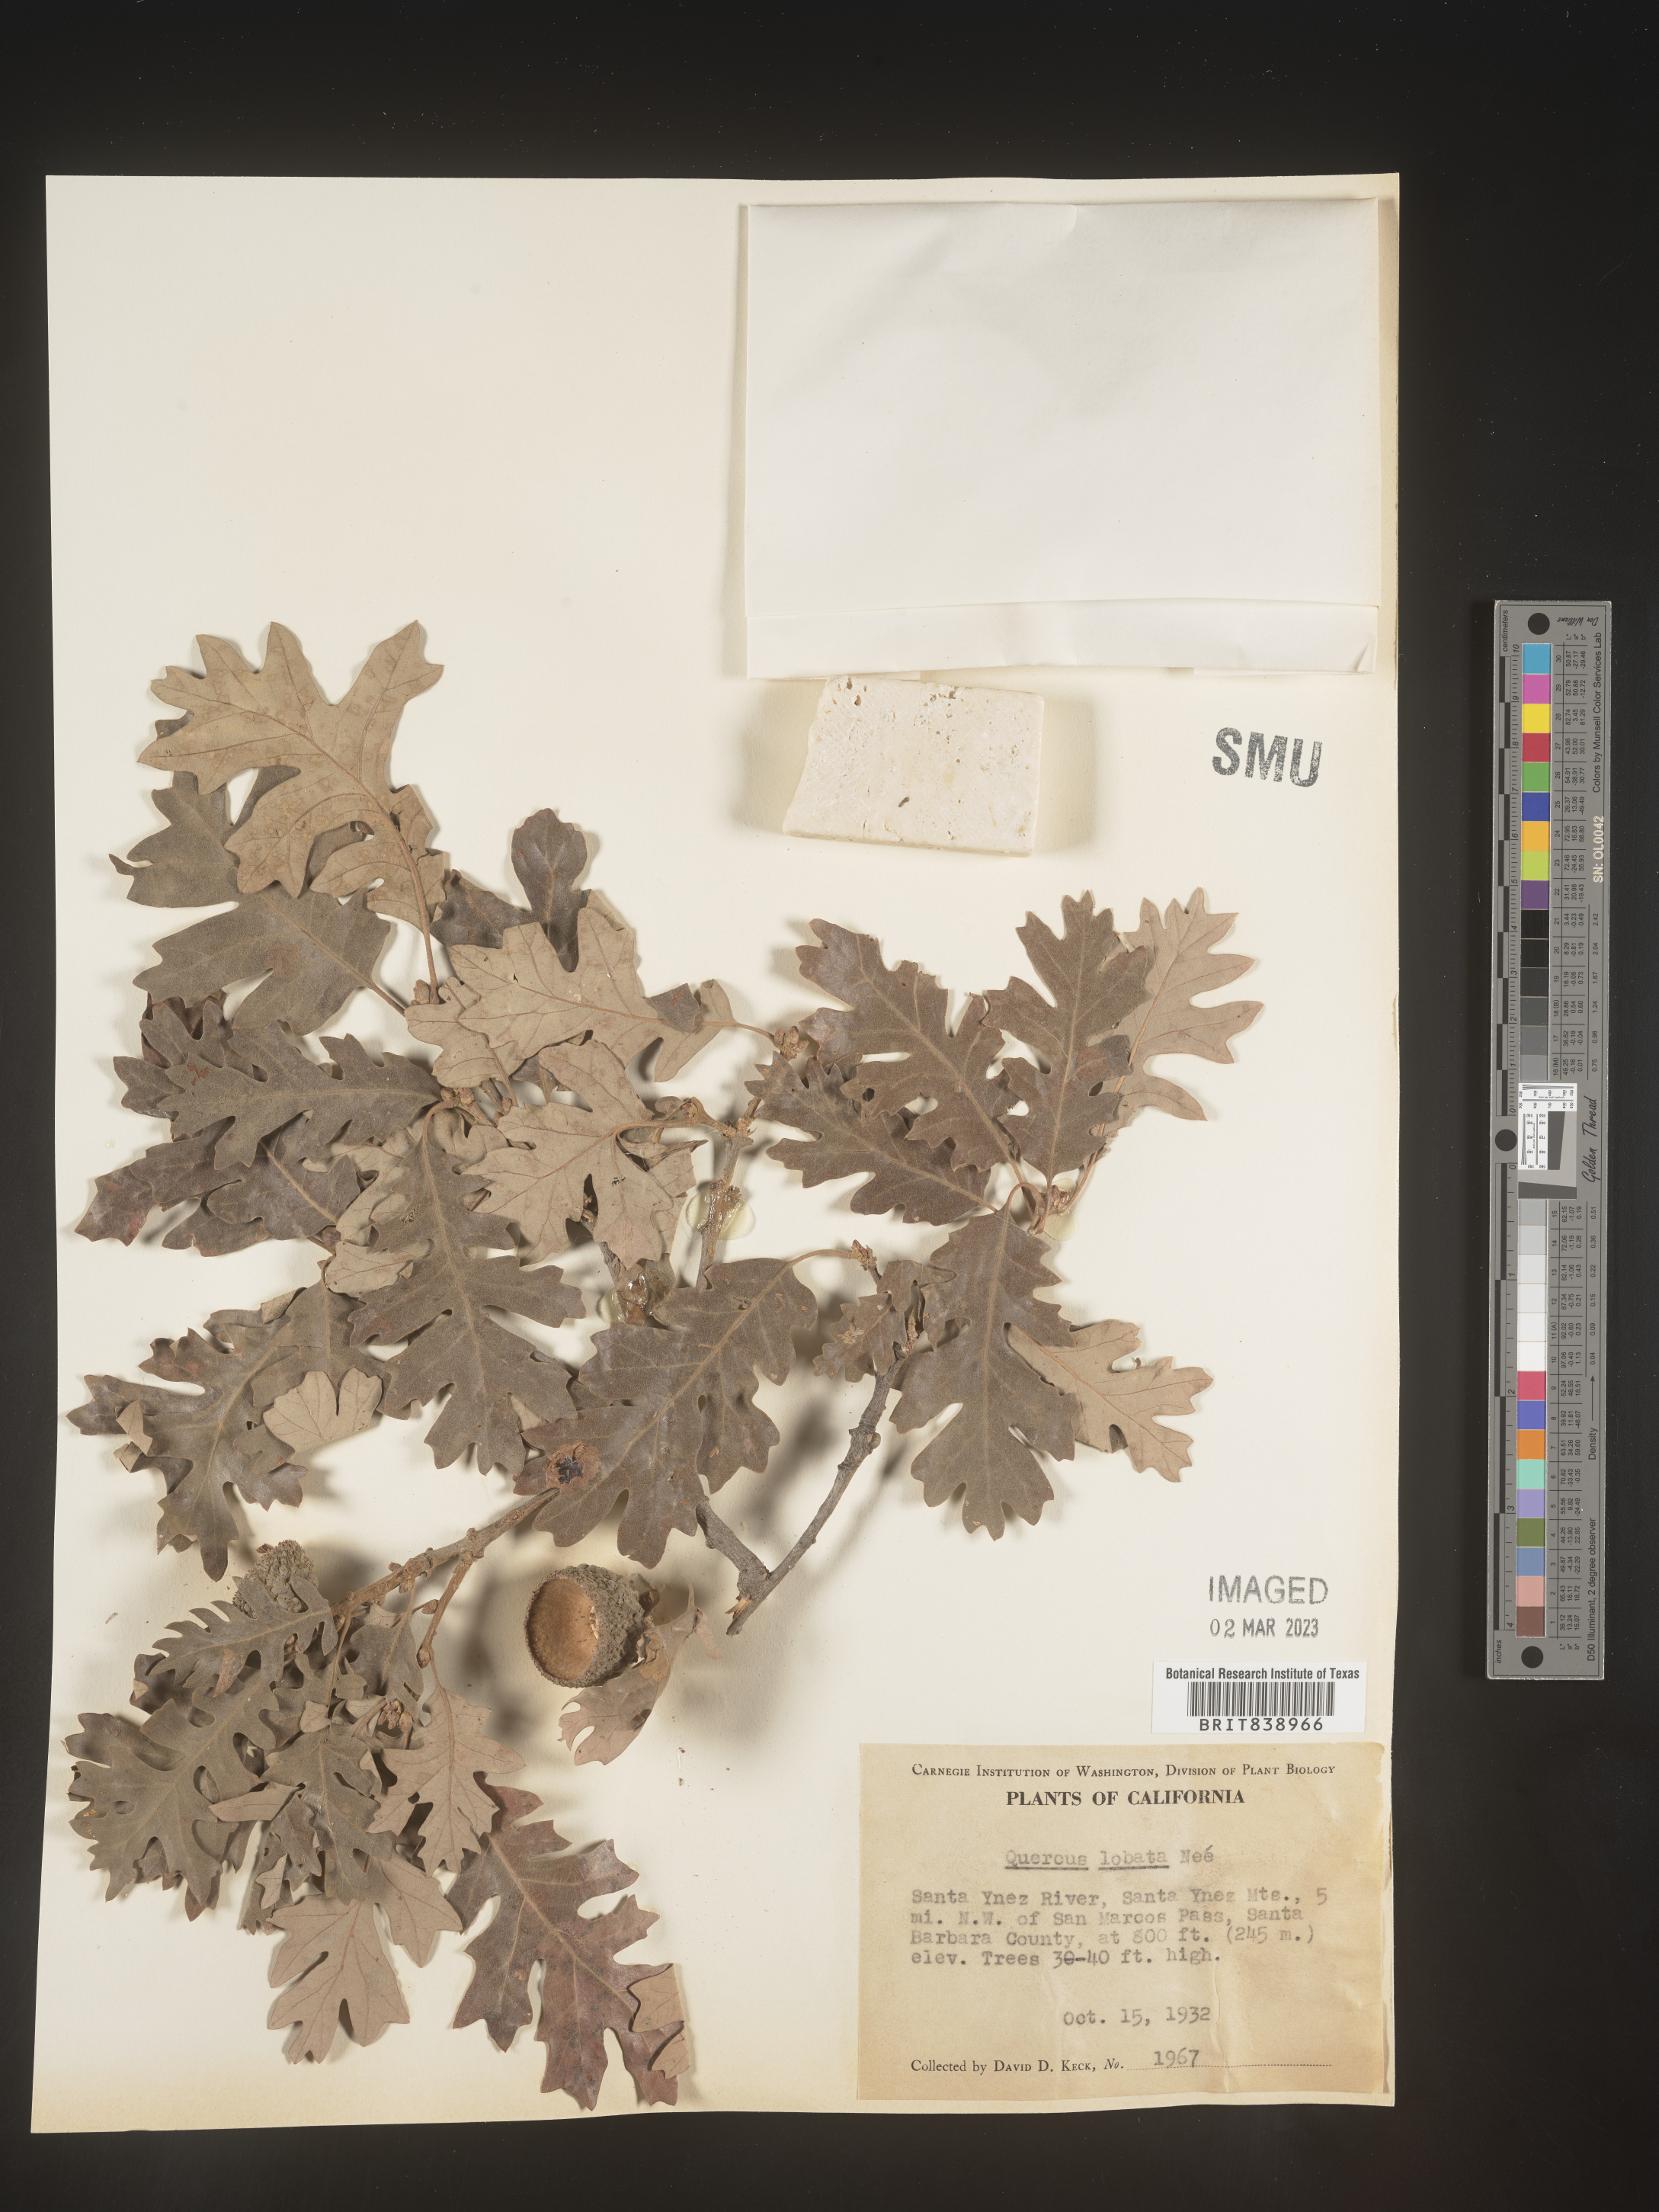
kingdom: Plantae
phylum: Tracheophyta
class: Magnoliopsida
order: Fagales
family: Fagaceae
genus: Quercus
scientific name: Quercus
